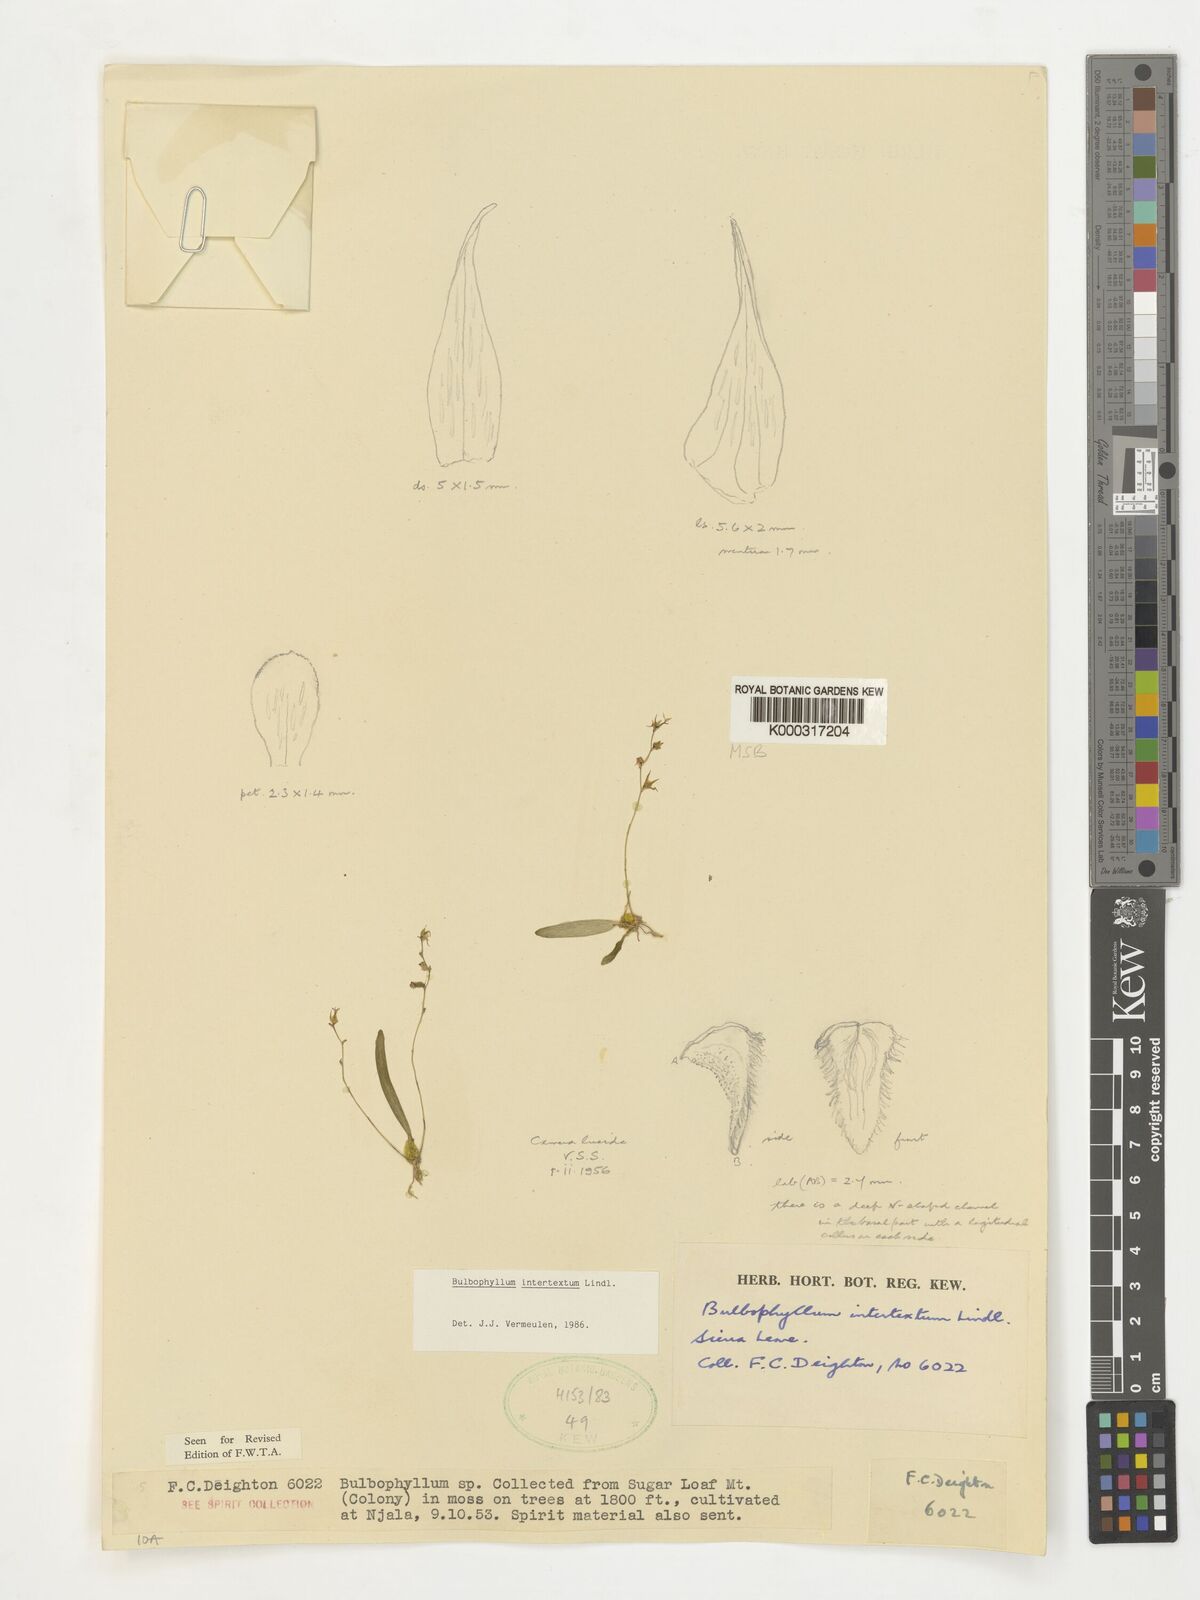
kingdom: Plantae
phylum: Tracheophyta
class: Liliopsida
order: Asparagales
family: Orchidaceae
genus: Bulbophyllum
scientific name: Bulbophyllum intertextum
